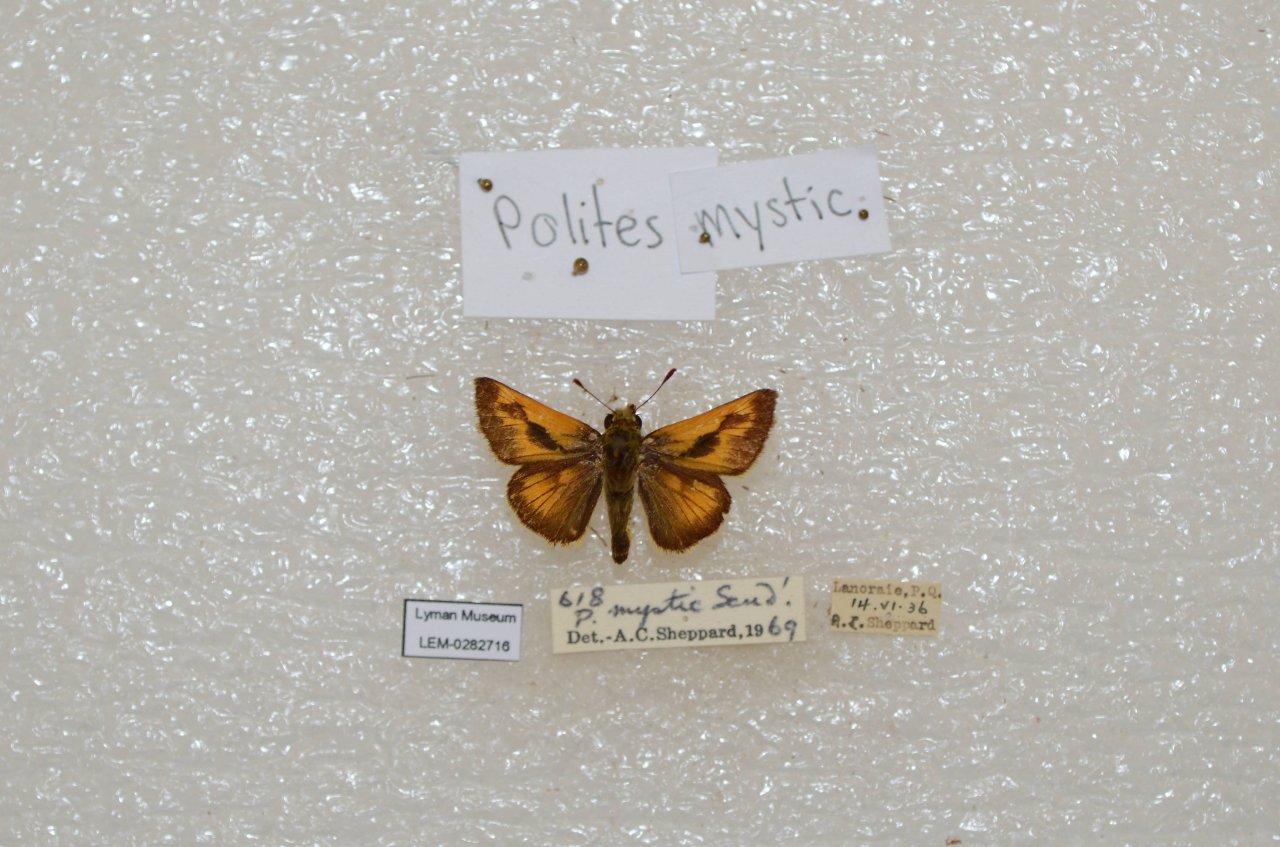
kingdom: Animalia
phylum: Arthropoda
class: Insecta
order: Lepidoptera
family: Hesperiidae
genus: Polites
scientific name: Polites
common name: Long Dash Skipper
